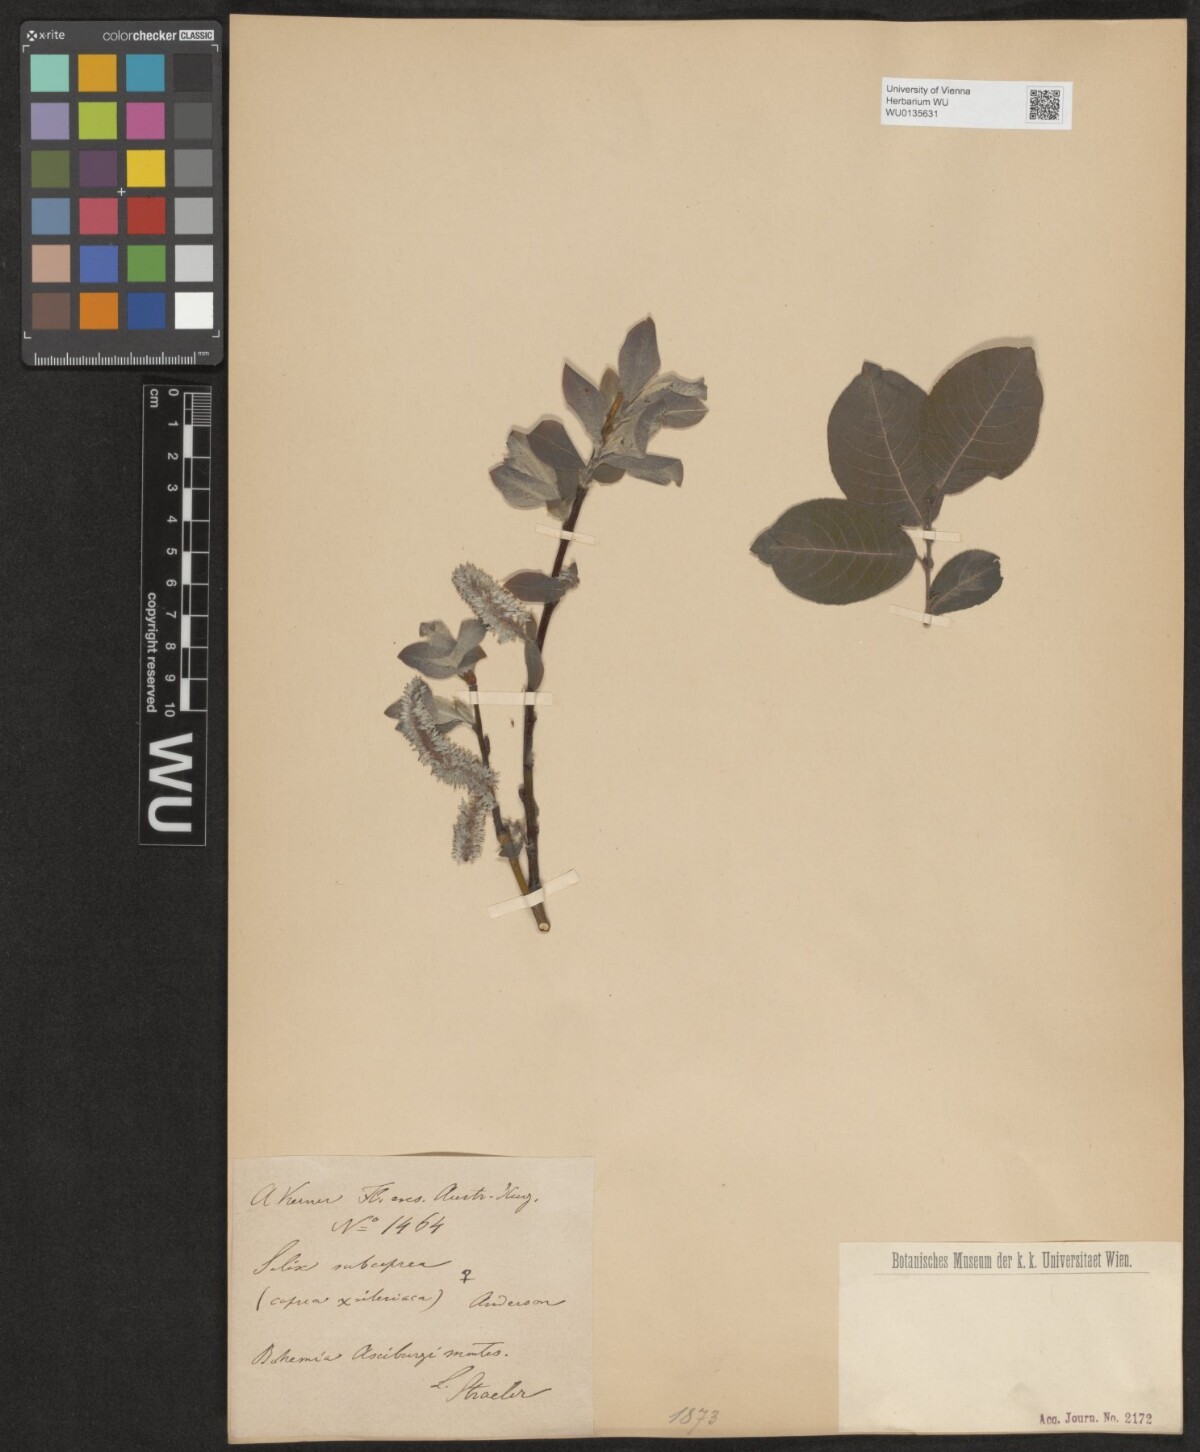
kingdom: Plantae
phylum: Tracheophyta
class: Magnoliopsida
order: Malpighiales
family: Salicaceae
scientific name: Salicaceae
